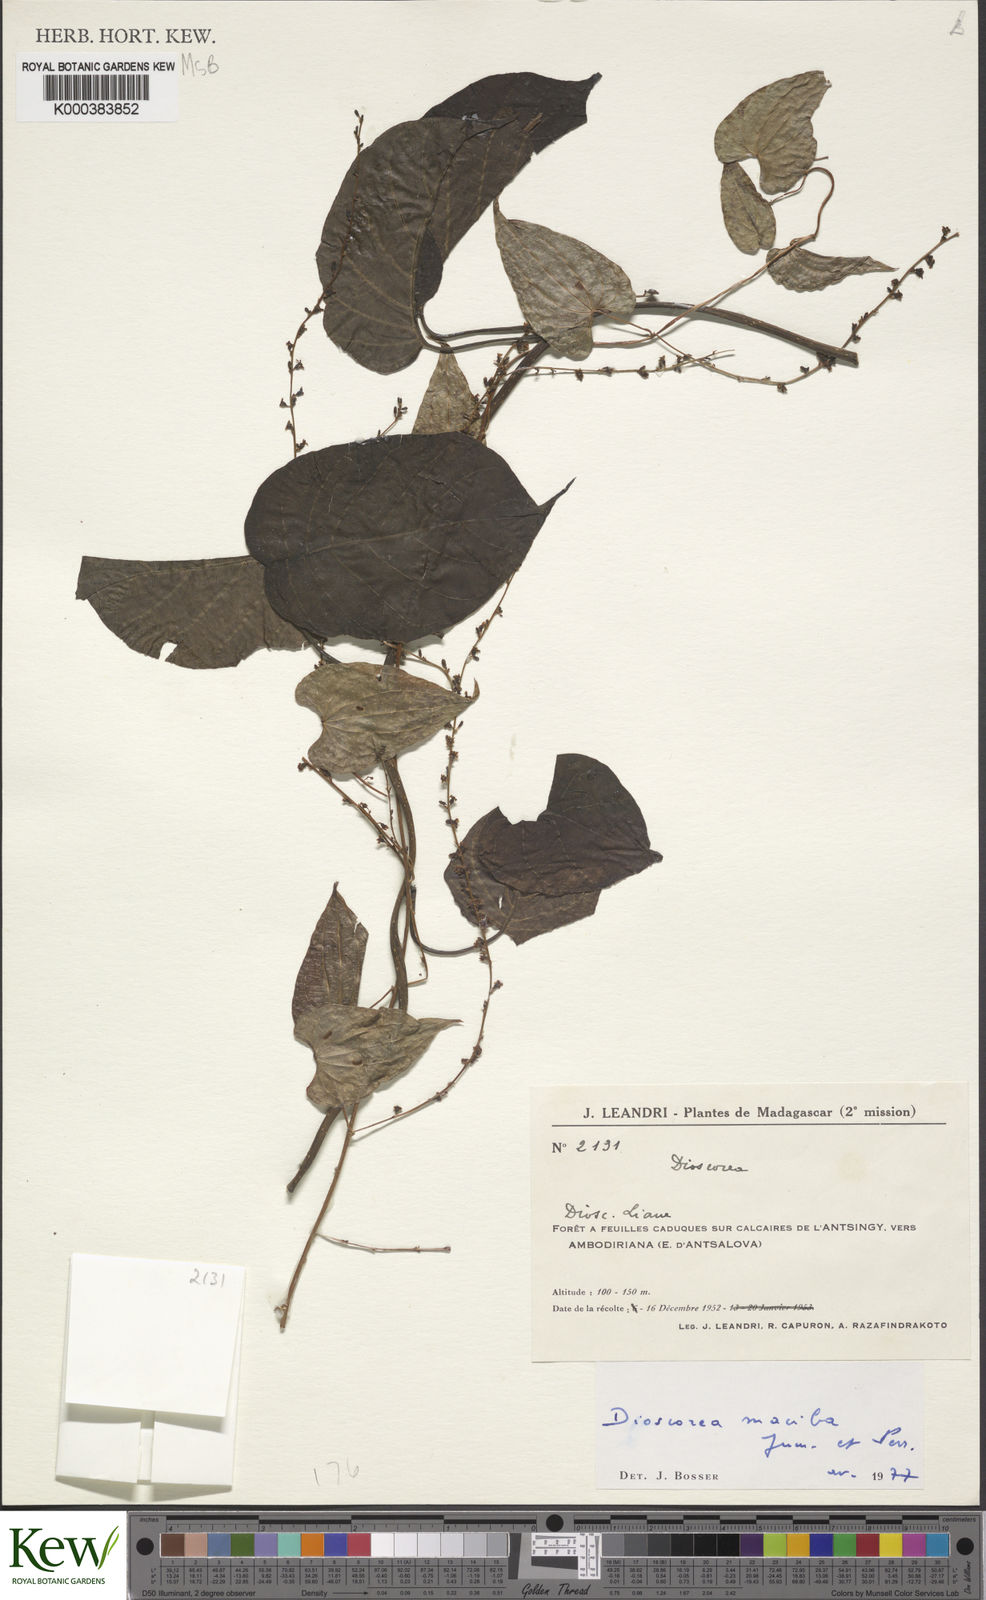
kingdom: Plantae
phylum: Tracheophyta
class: Liliopsida
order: Dioscoreales
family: Dioscoreaceae
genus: Dioscorea
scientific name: Dioscorea
